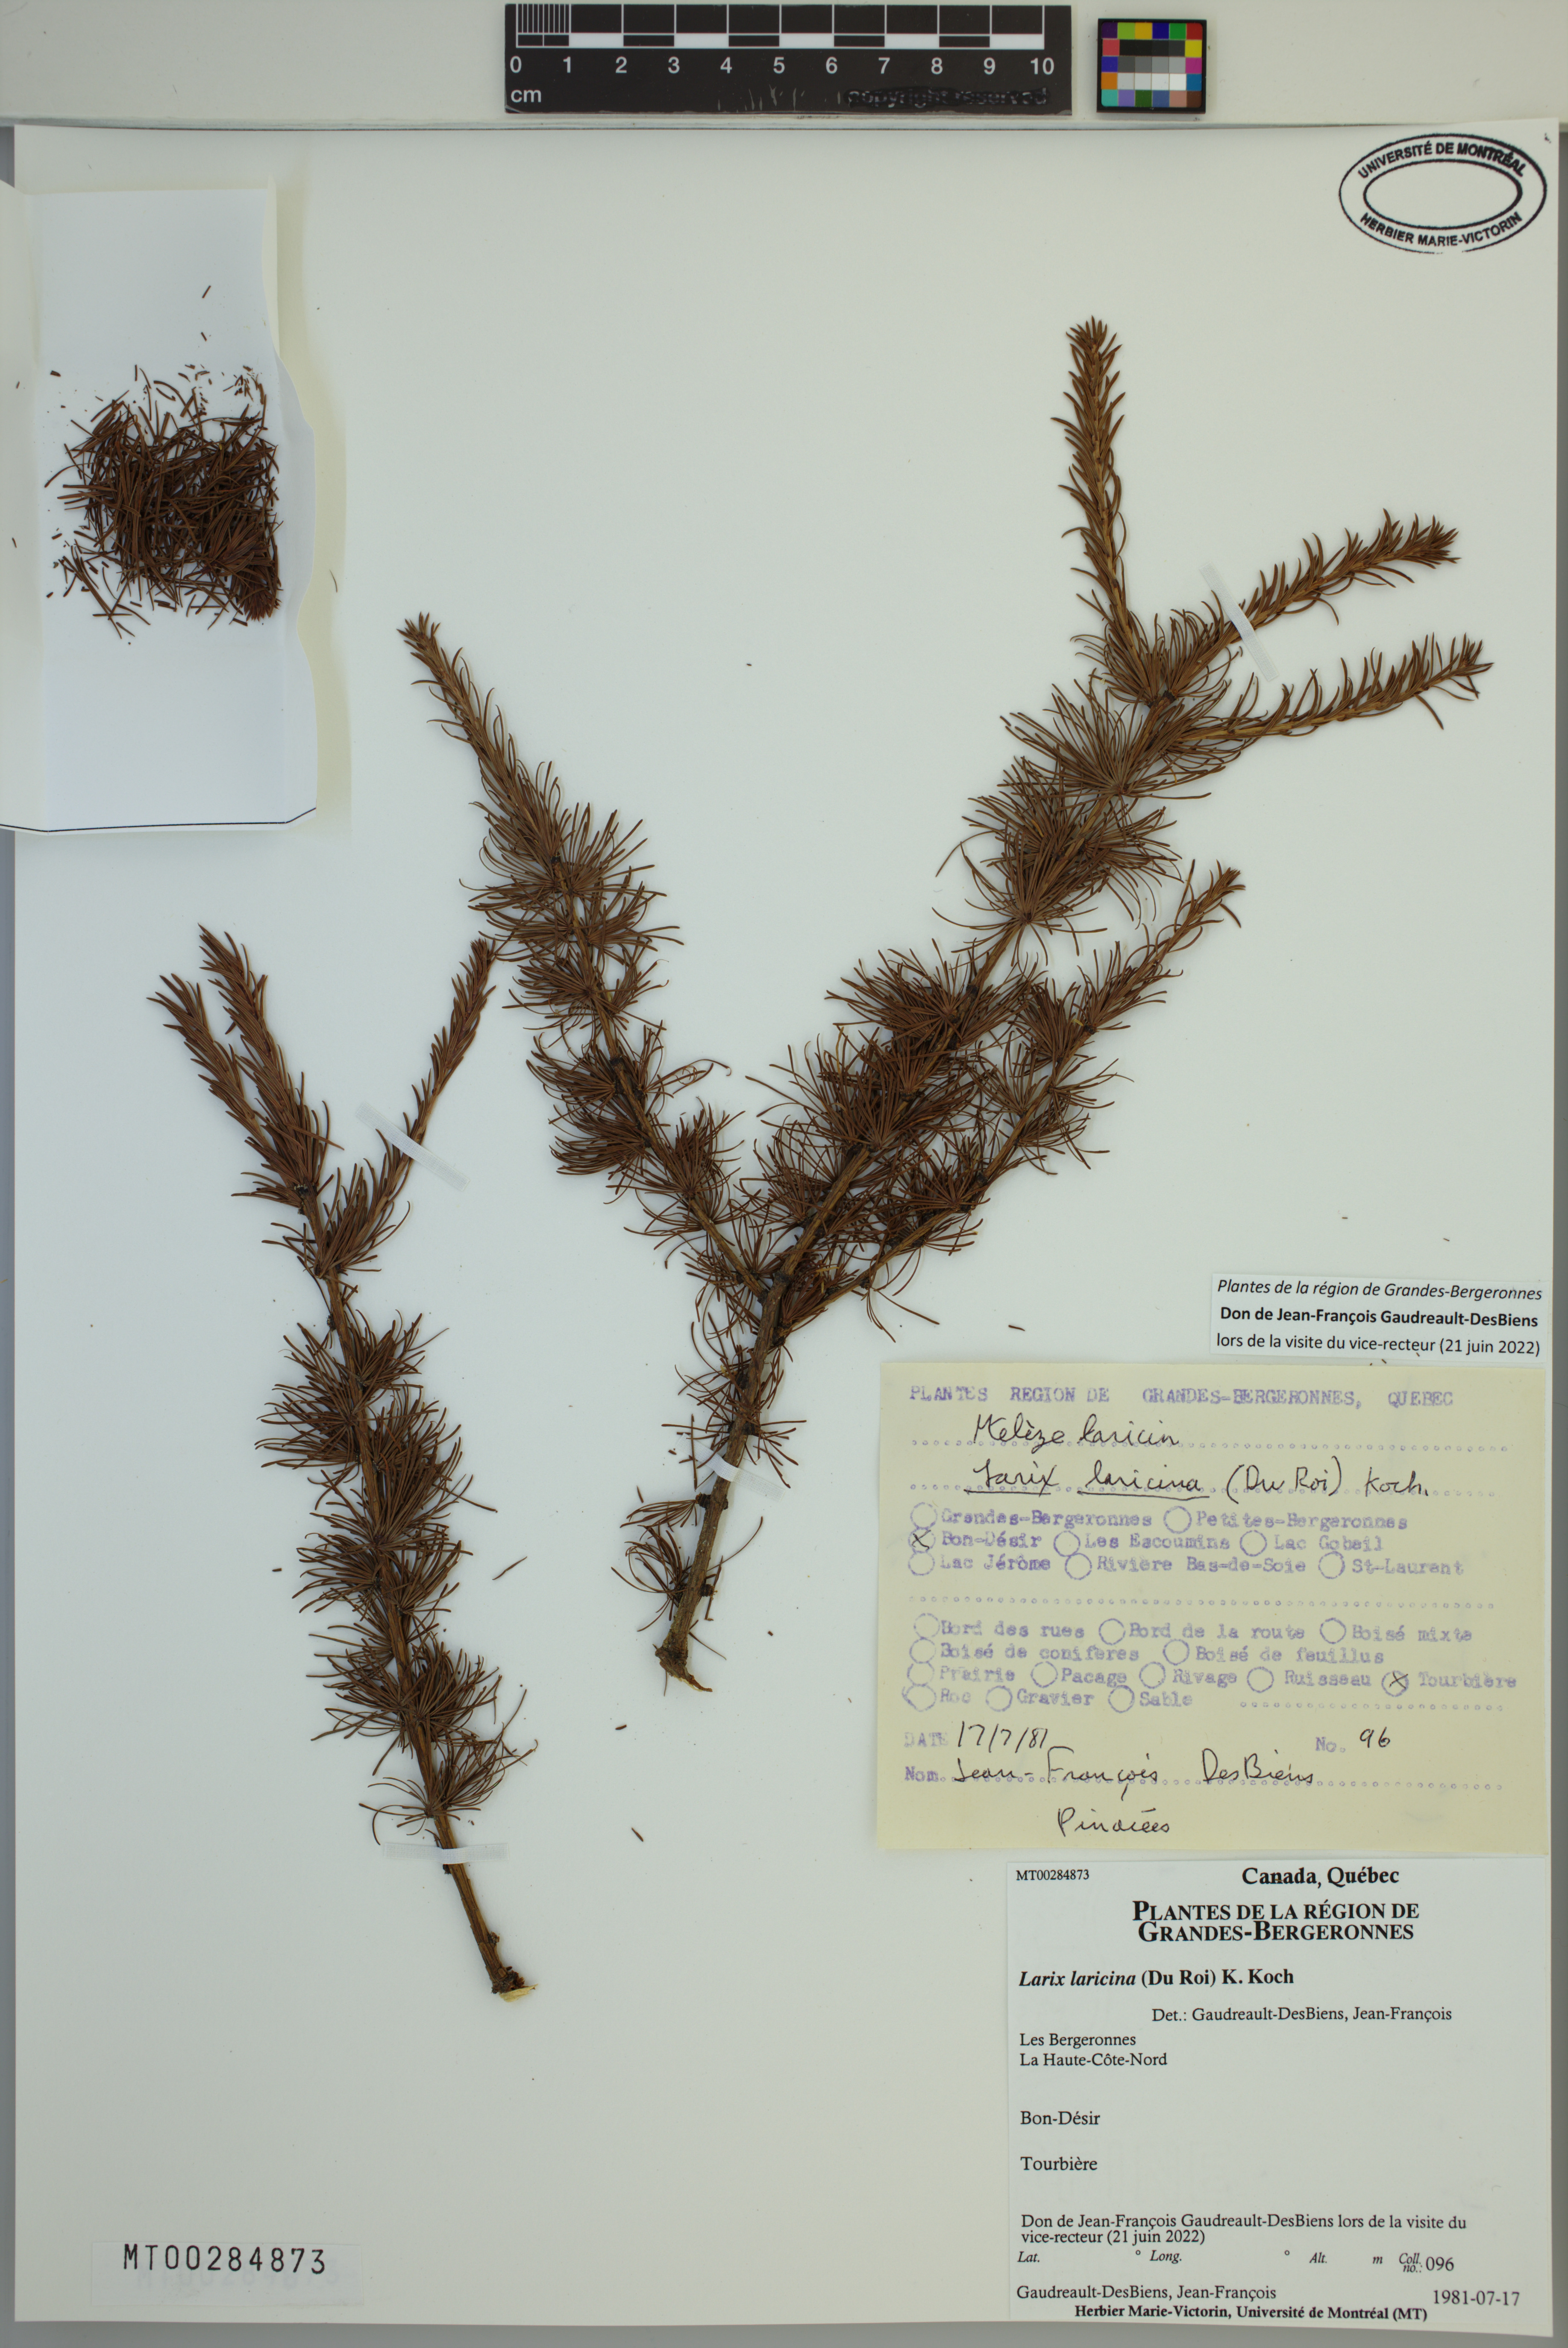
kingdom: Plantae
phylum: Tracheophyta
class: Pinopsida
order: Pinales
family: Pinaceae
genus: Larix
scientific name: Larix laricina
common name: American larch
